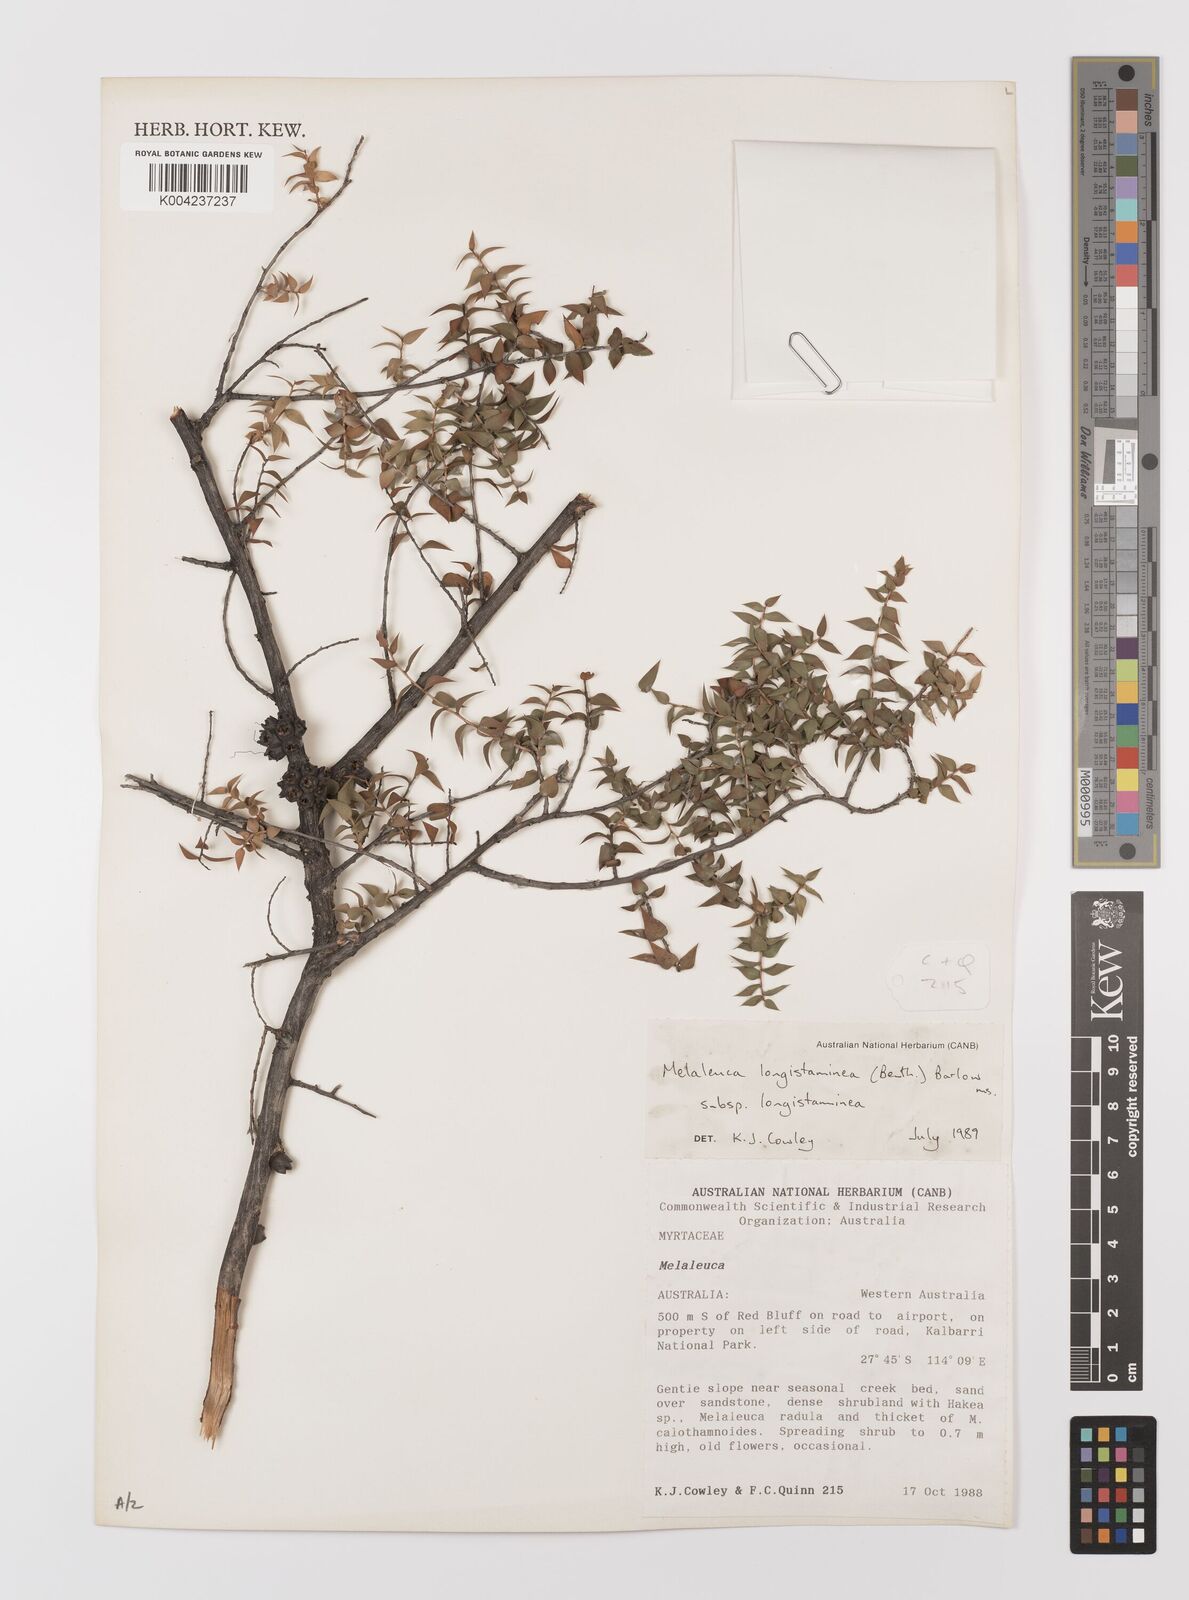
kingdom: Plantae
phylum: Tracheophyta
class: Magnoliopsida
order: Myrtales
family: Myrtaceae
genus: Melaleuca
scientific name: Melaleuca longistaminea
